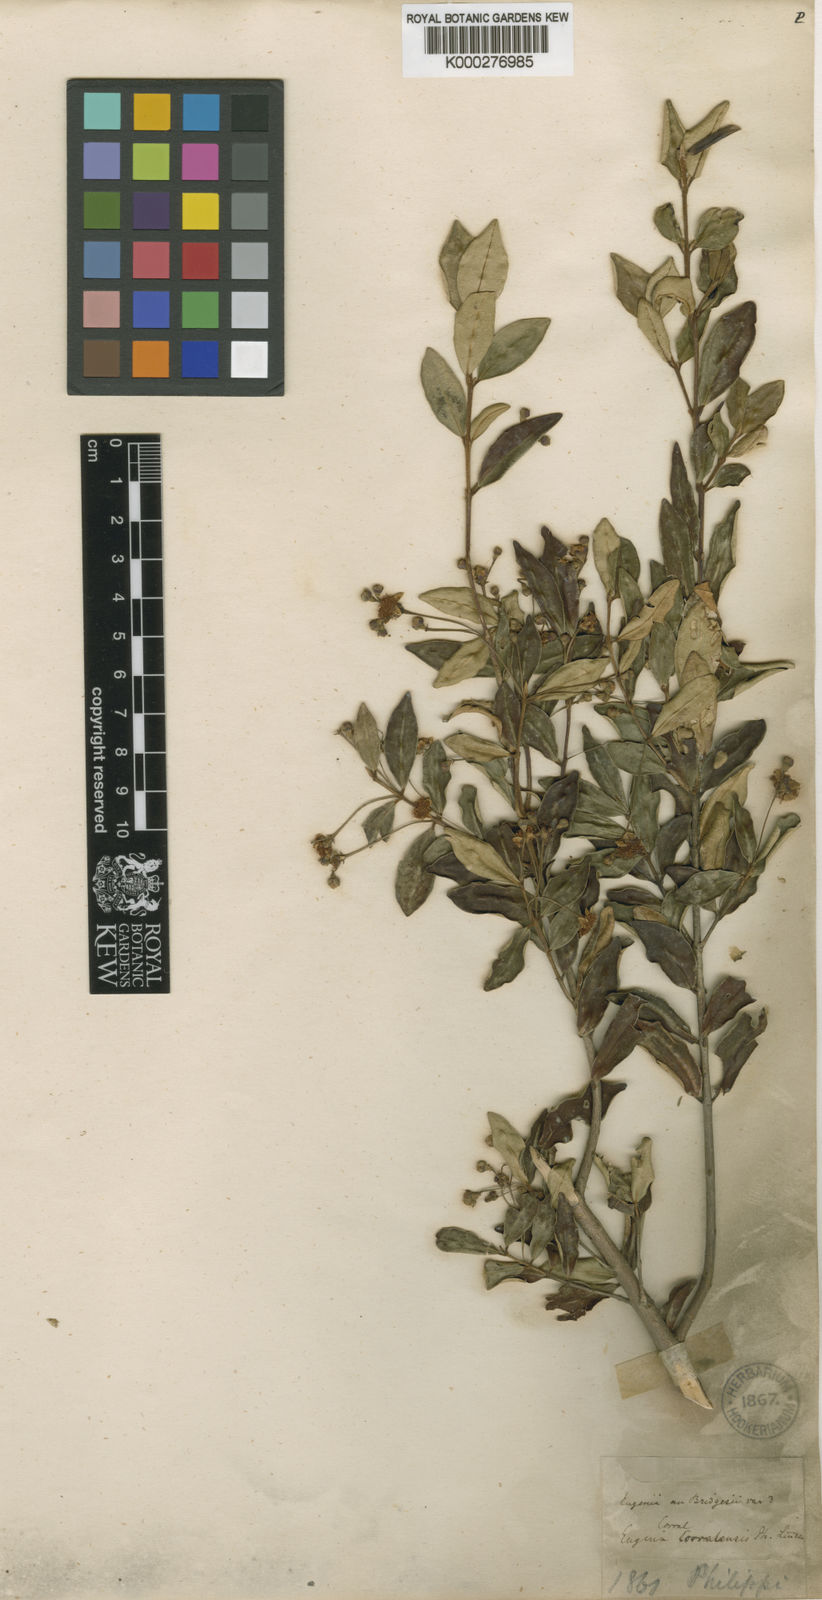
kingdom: Plantae
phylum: Tracheophyta
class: Magnoliopsida
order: Myrtales
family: Myrtaceae
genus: Myrceugenia
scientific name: Myrceugenia exsucca
